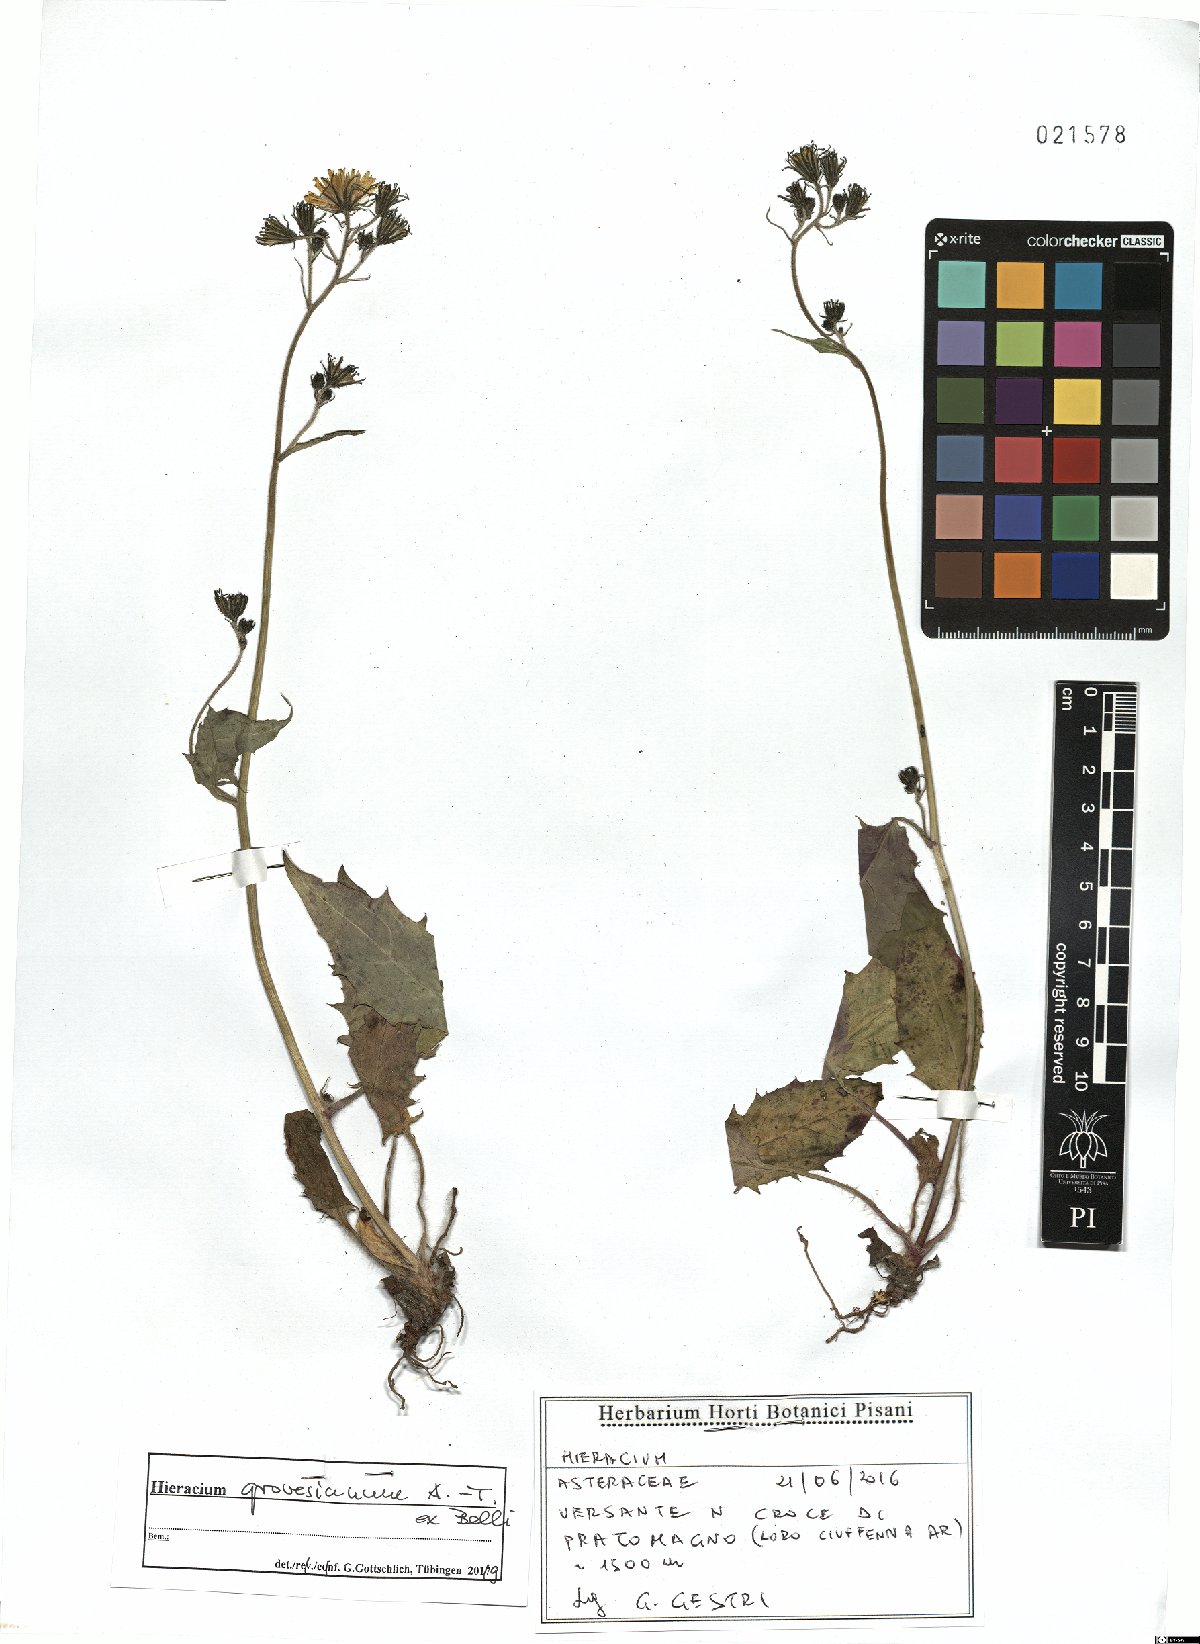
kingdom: Plantae
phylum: Tracheophyta
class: Magnoliopsida
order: Asterales
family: Asteraceae
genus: Hieracium
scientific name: Hieracium grovesianum
